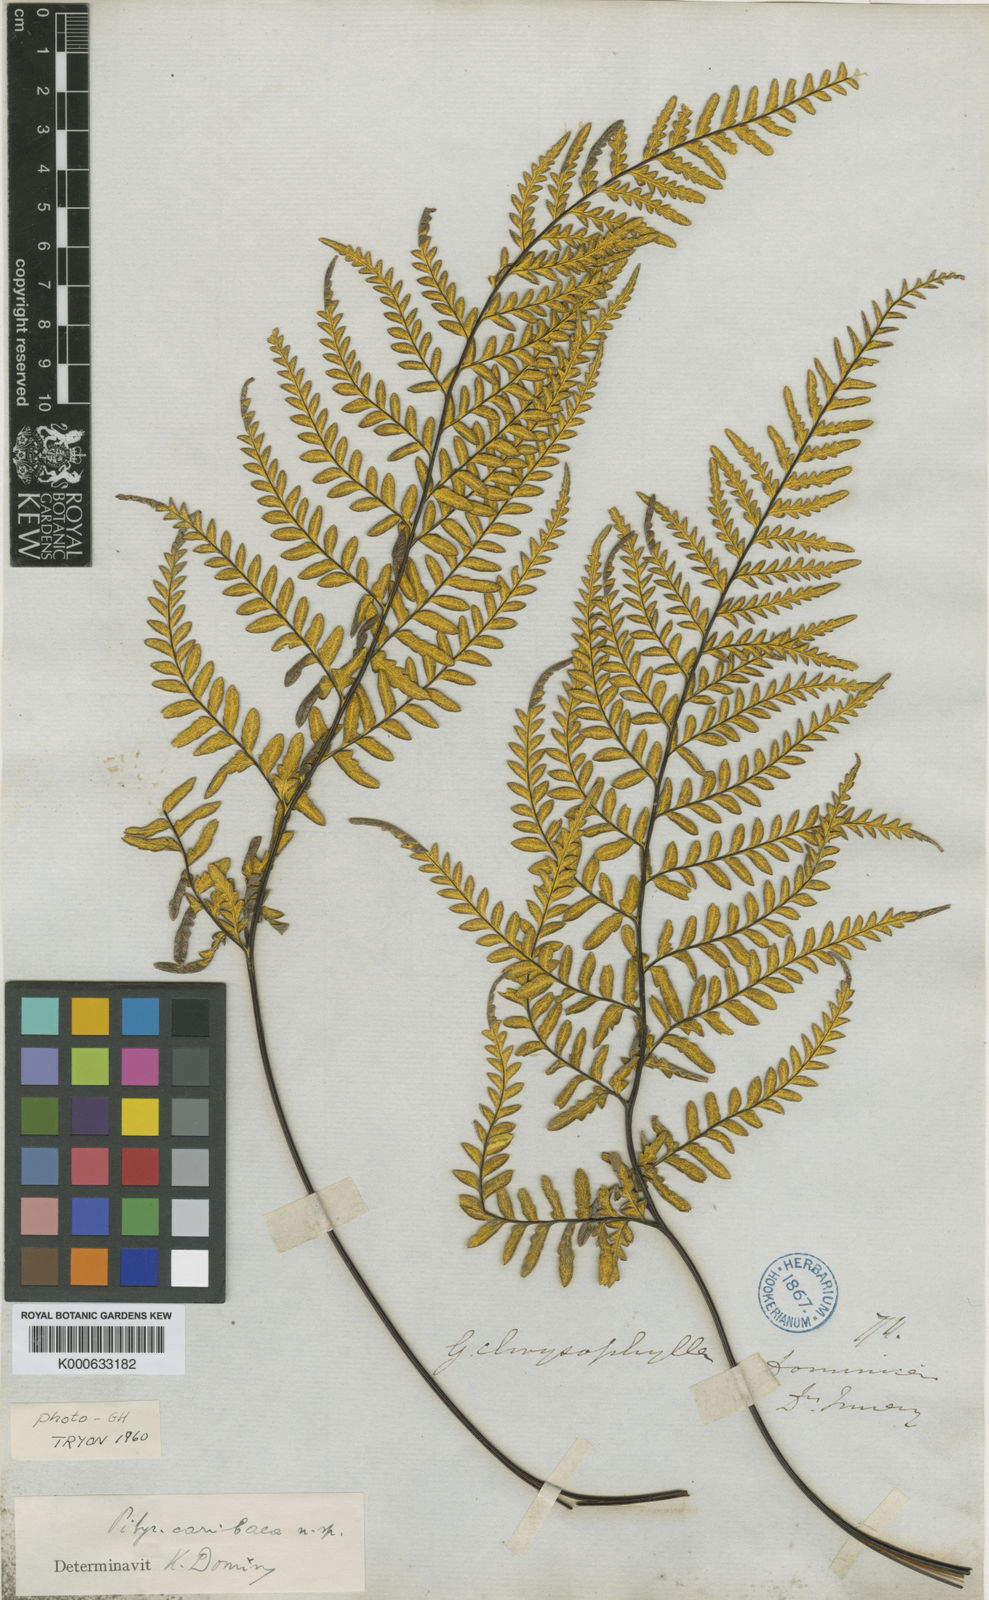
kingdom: Plantae
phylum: Tracheophyta
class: Polypodiopsida
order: Polypodiales
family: Pteridaceae
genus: Pityrogramma
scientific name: Pityrogramma chrysophylla
